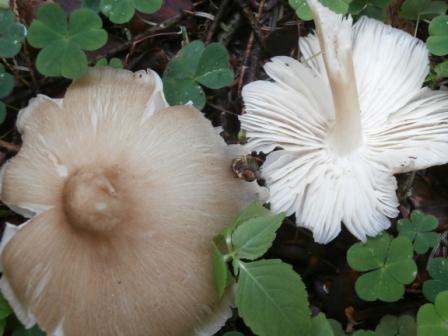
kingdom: Fungi
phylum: Basidiomycota
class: Agaricomycetes
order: Agaricales
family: Tricholomataceae
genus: Megacollybia
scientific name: Megacollybia platyphylla
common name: bredbladet væbnerhat
